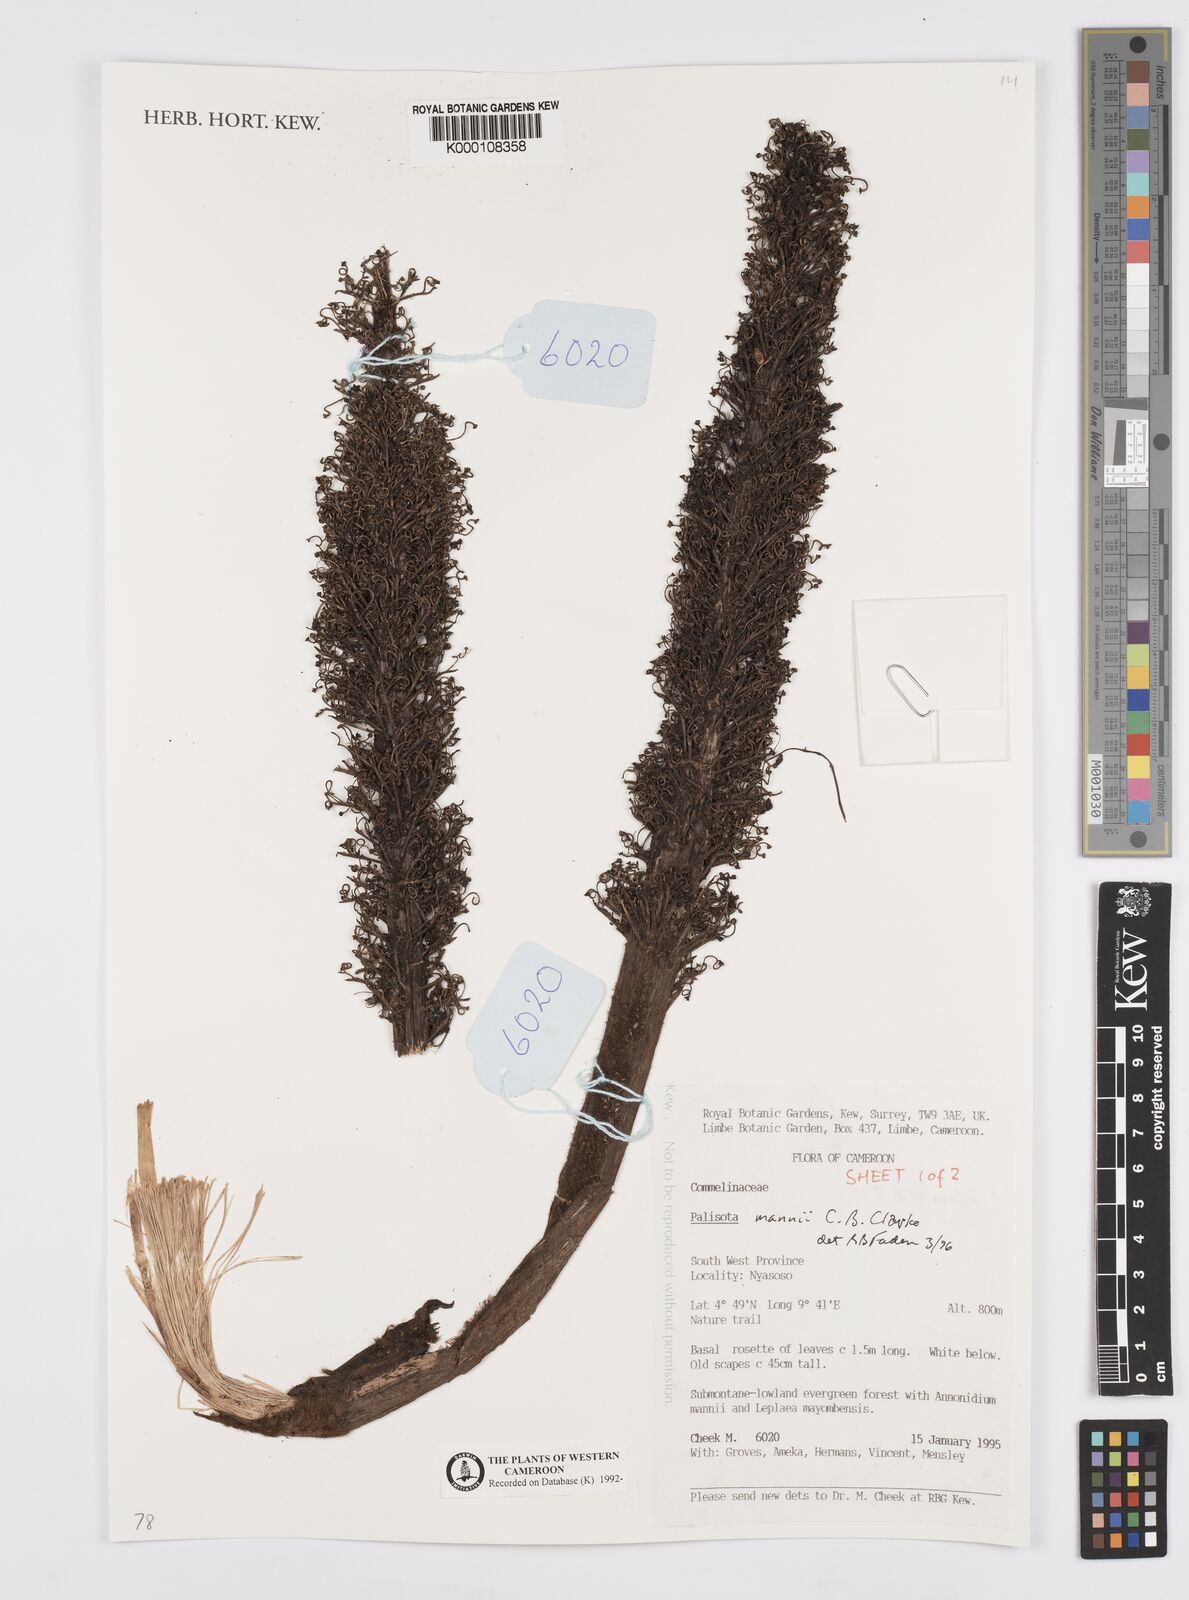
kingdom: Plantae
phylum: Tracheophyta
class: Liliopsida
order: Commelinales
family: Commelinaceae
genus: Palisota
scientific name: Palisota mannii
